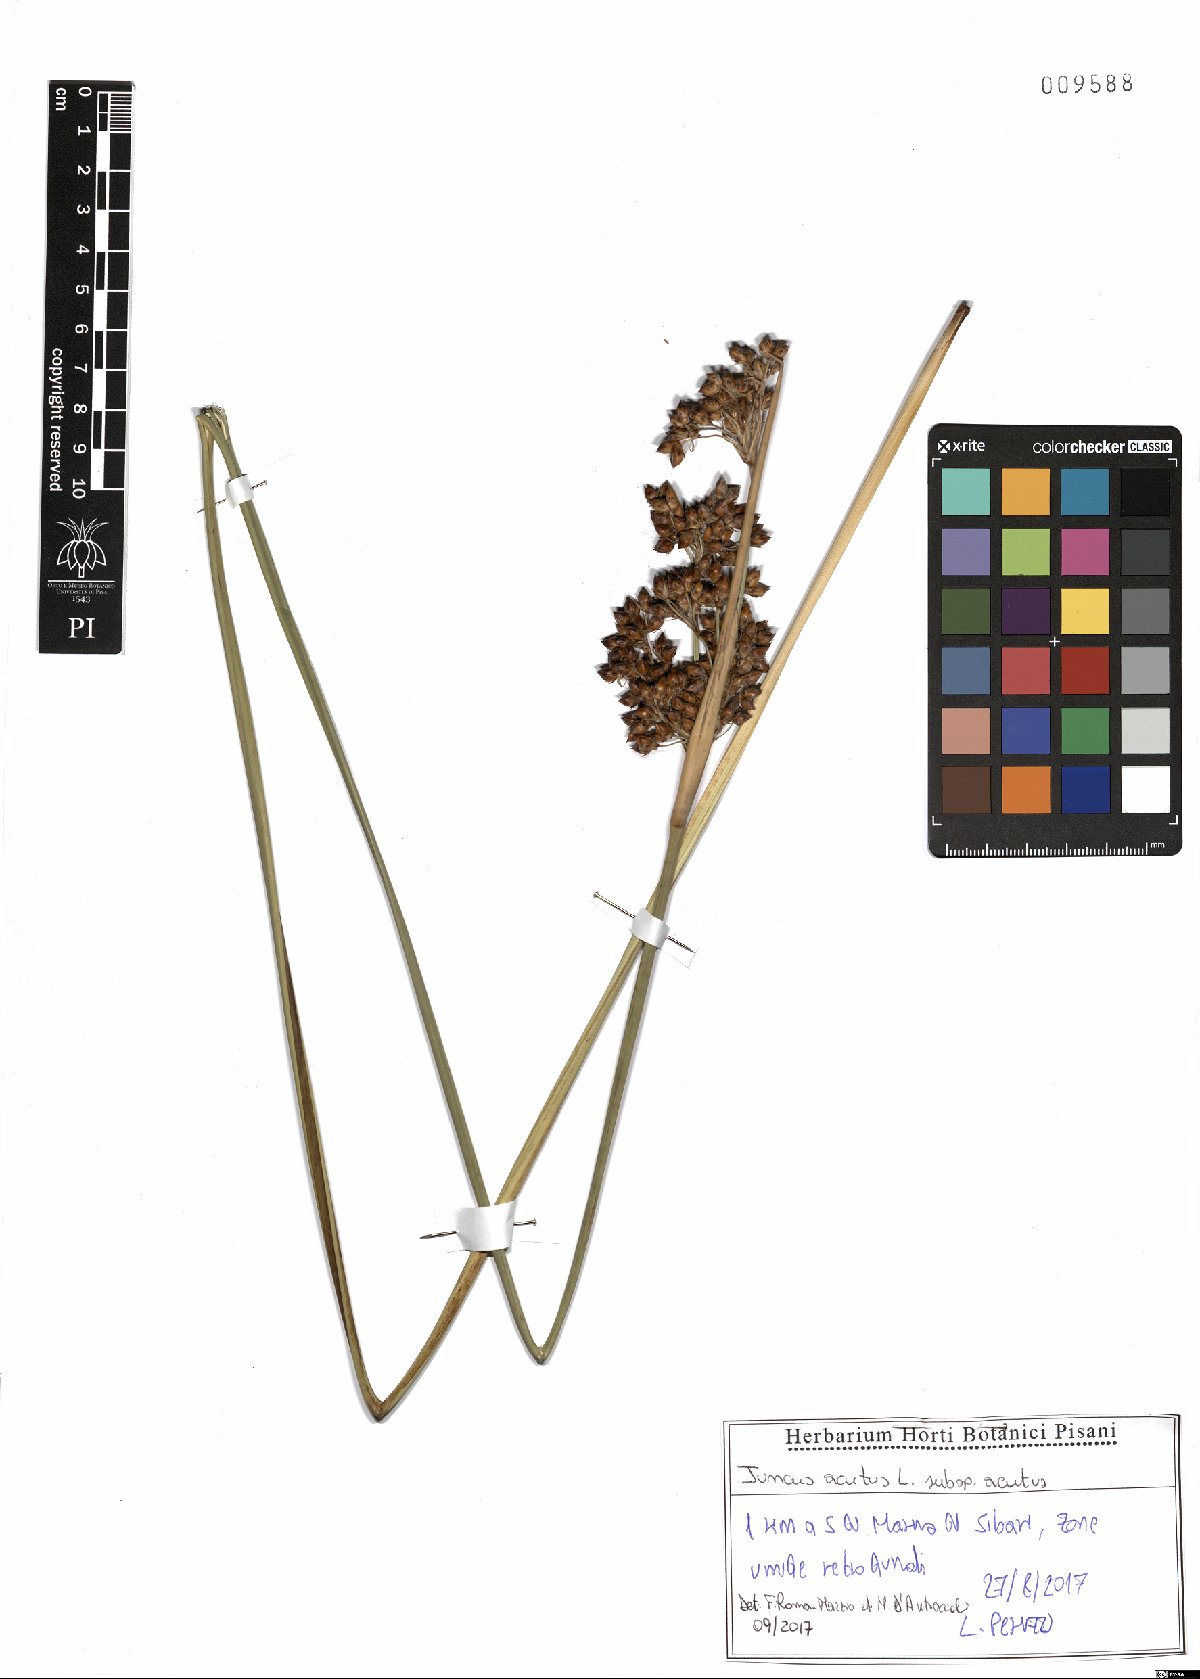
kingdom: Plantae
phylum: Tracheophyta
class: Liliopsida
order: Poales
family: Juncaceae
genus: Juncus
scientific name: Juncus acutus
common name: Sharp rush
